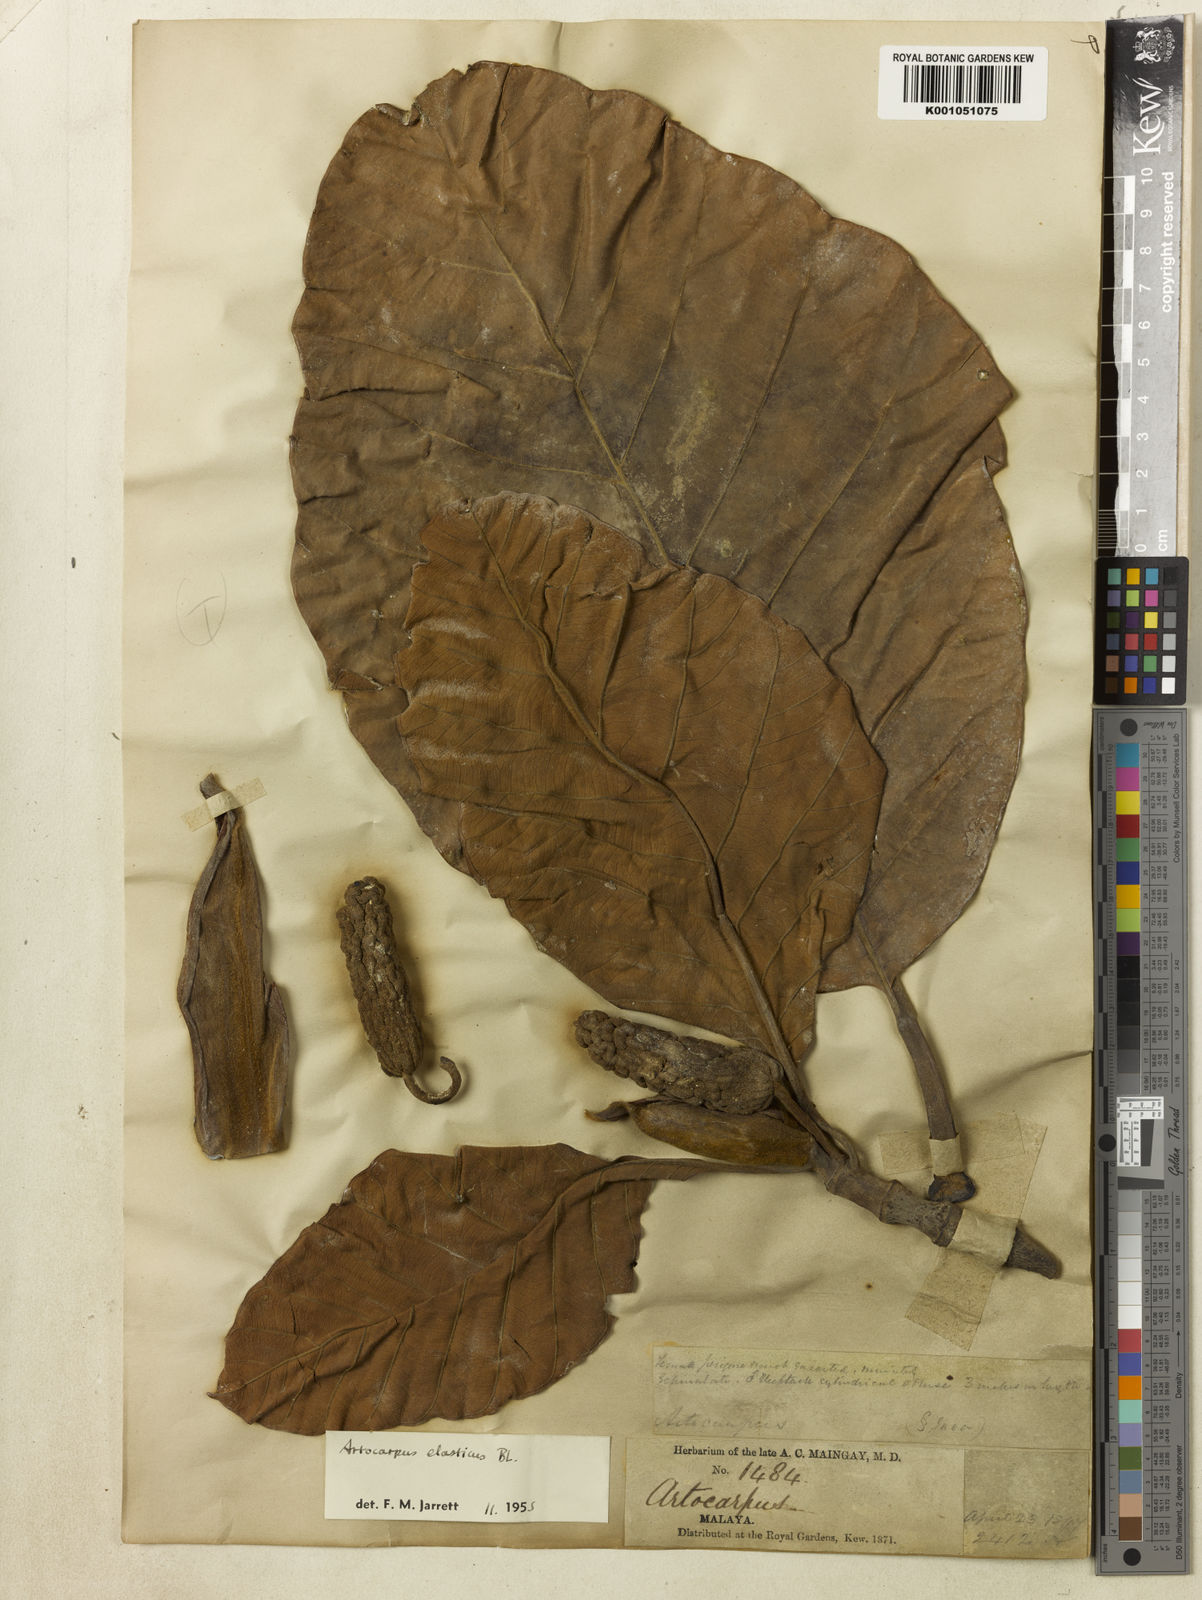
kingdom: Plantae
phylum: Tracheophyta
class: Magnoliopsida
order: Rosales
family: Moraceae
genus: Artocarpus
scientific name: Artocarpus
